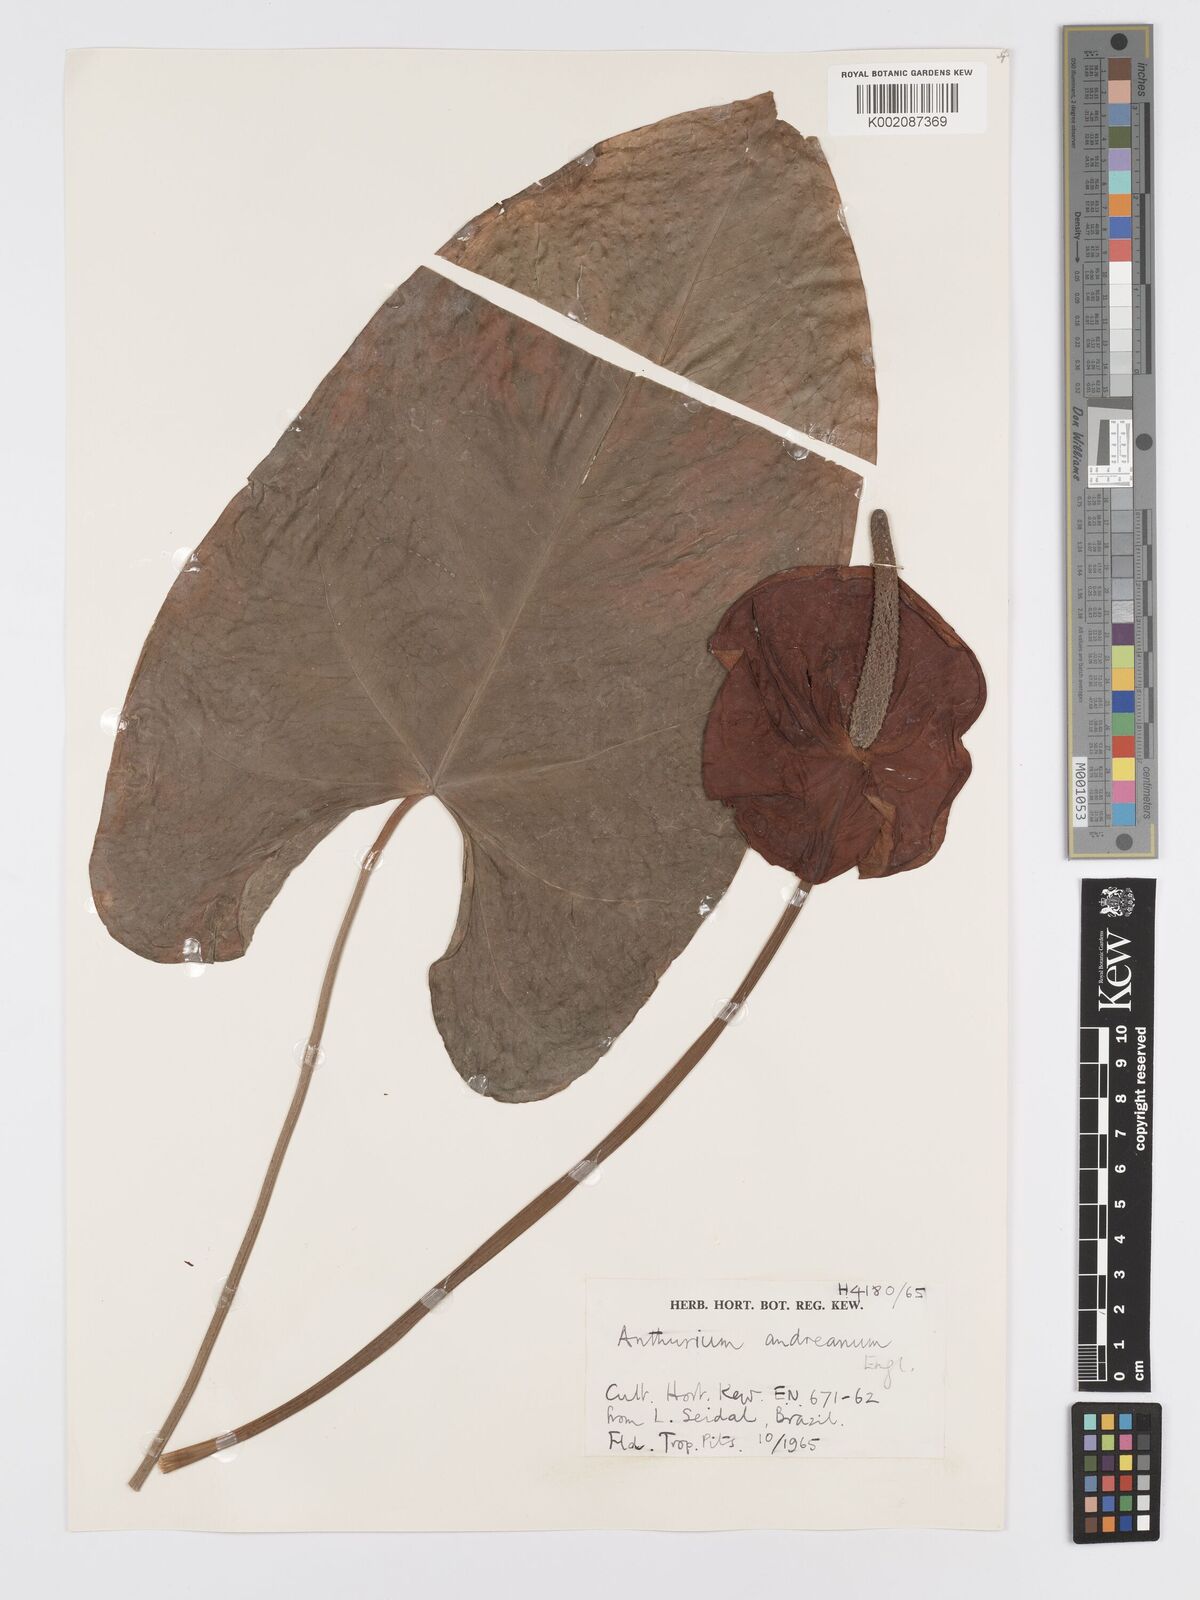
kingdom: Plantae
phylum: Tracheophyta
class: Liliopsida
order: Alismatales
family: Araceae
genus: Anthurium
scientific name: Anthurium andraeanum
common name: Flamingo-flower
